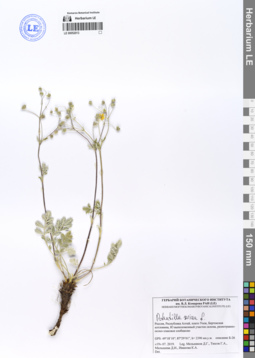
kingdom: Plantae
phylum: Tracheophyta
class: Magnoliopsida
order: Rosales
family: Rosaceae
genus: Potentilla
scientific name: Potentilla sericea
